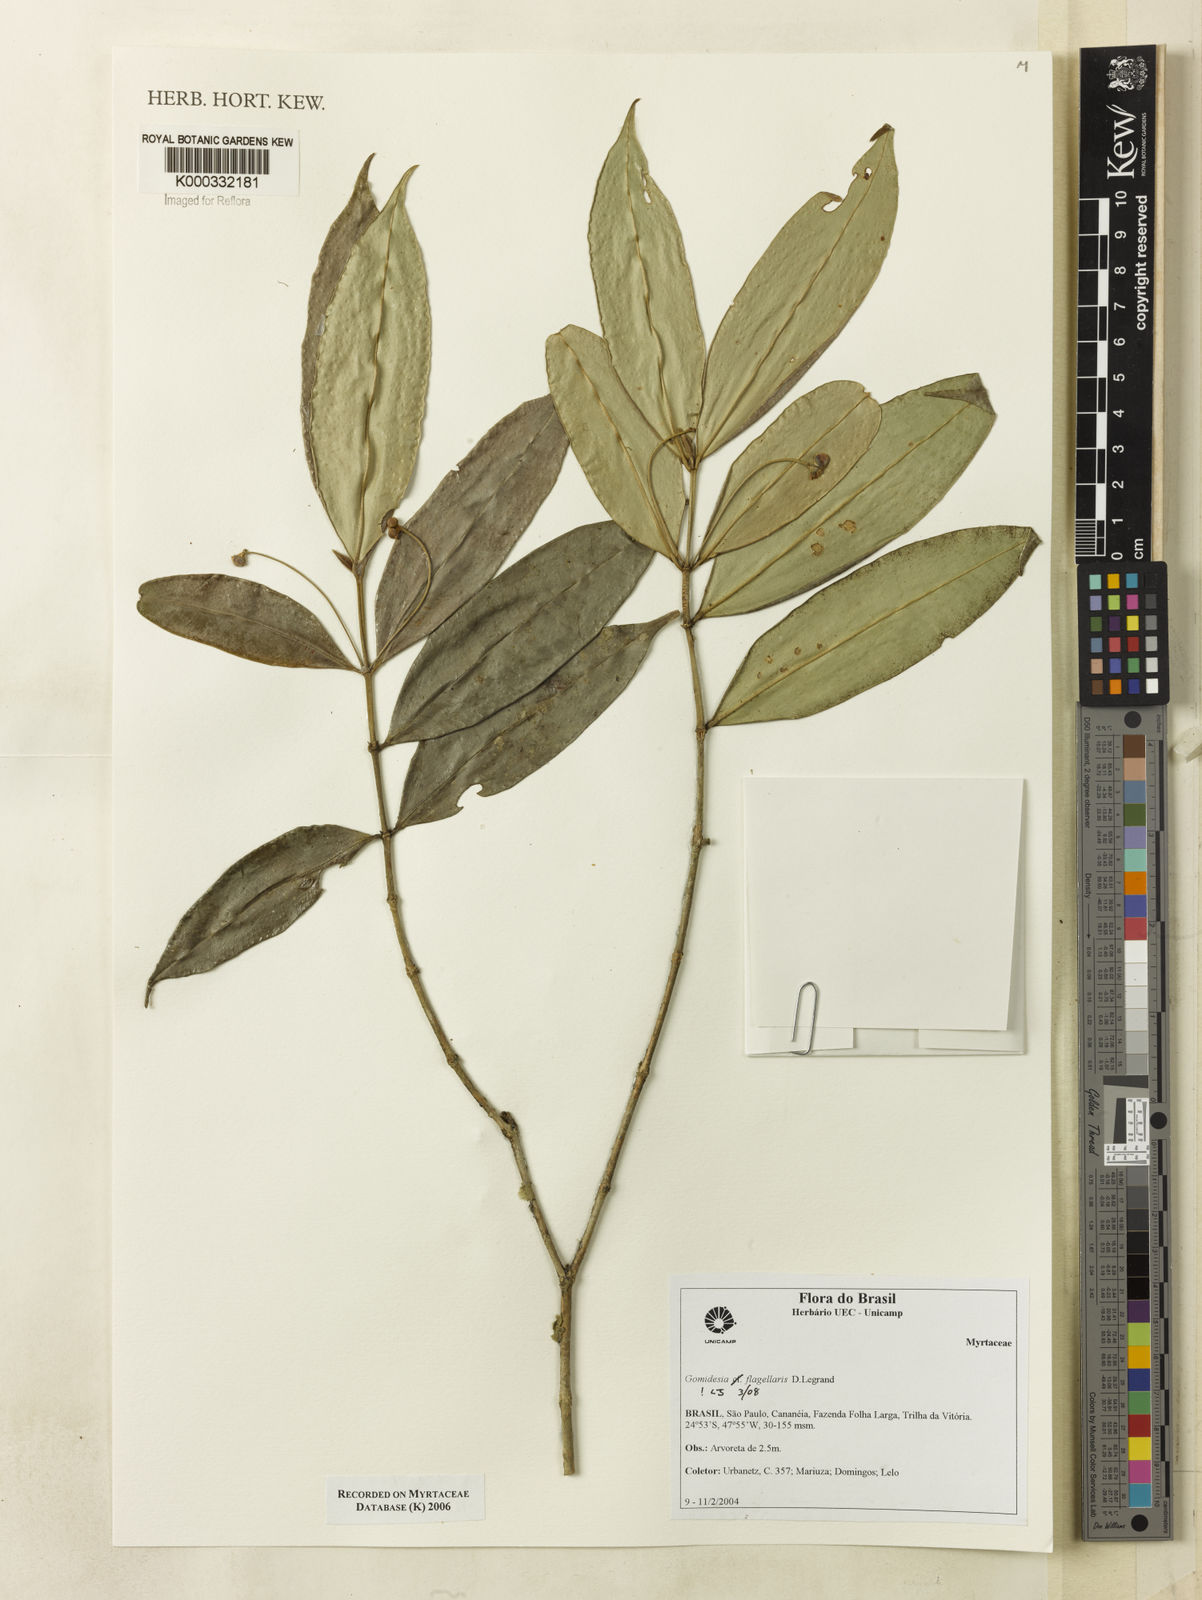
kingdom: Plantae
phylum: Tracheophyta
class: Magnoliopsida
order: Myrtales
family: Myrtaceae
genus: Myrcia
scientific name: Myrcia flagellaris
